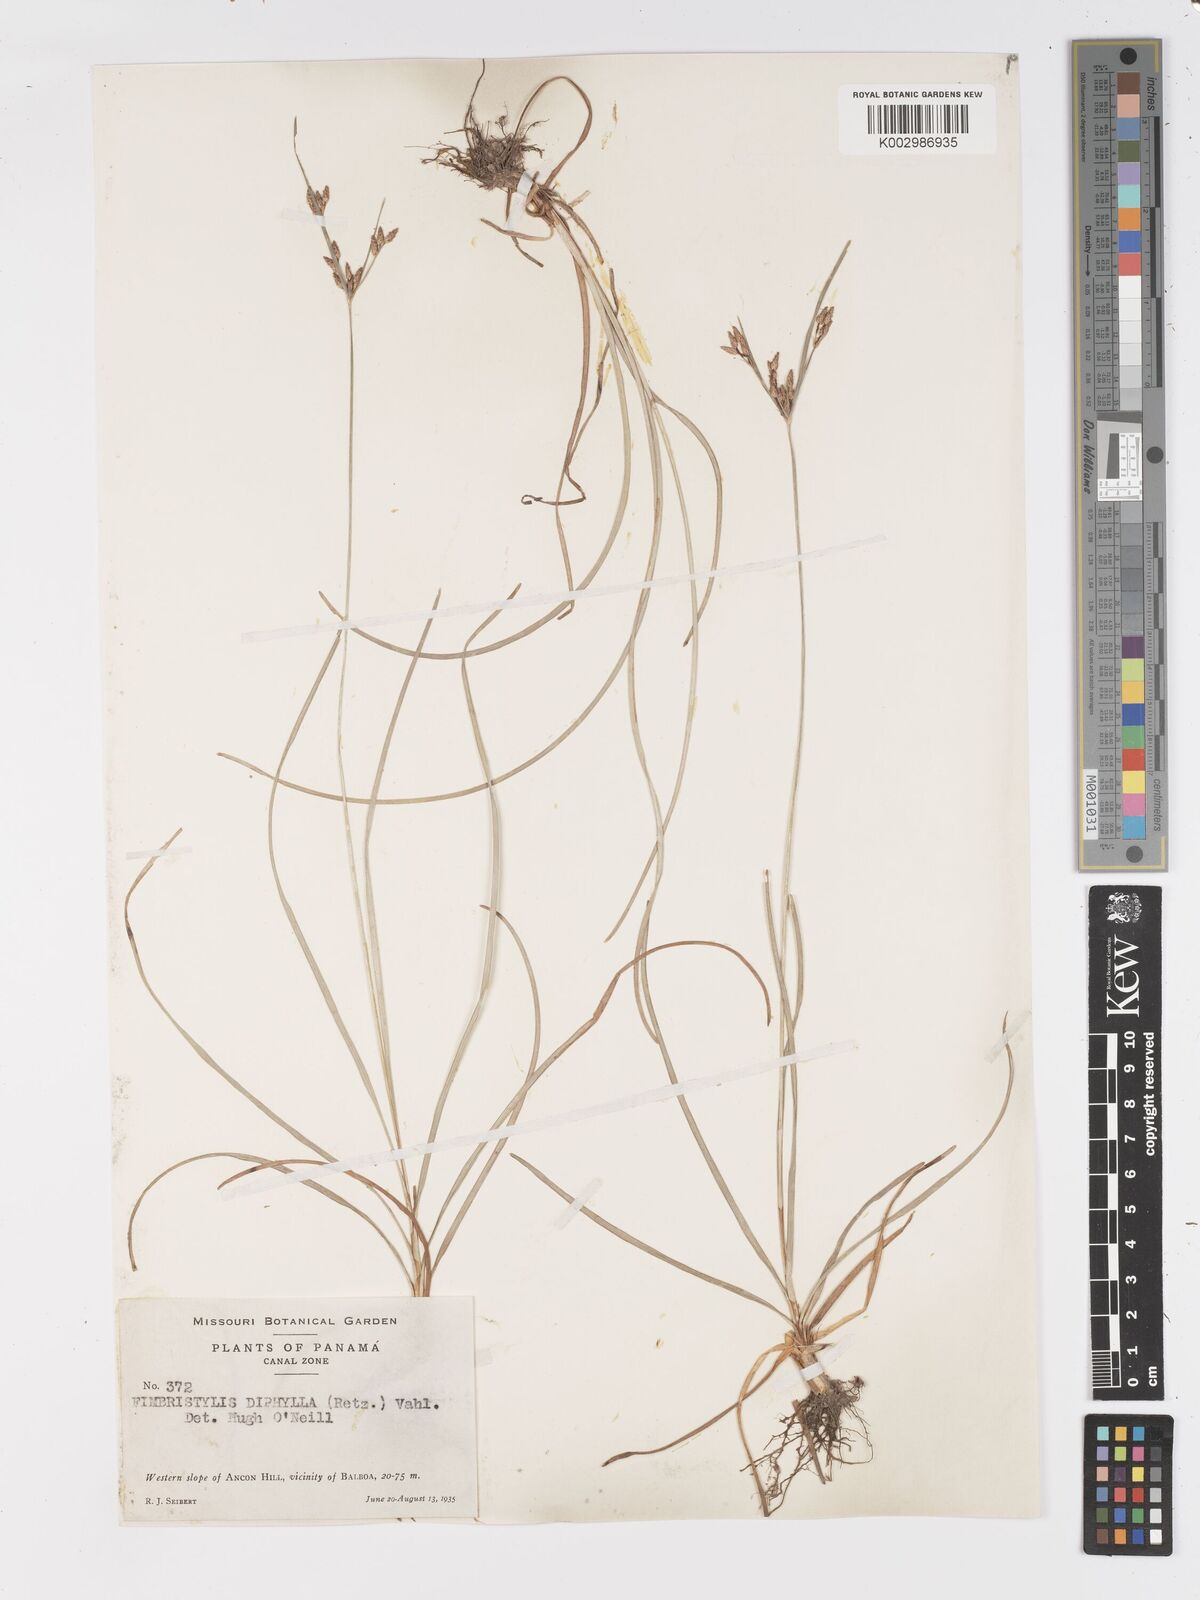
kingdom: Plantae
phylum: Tracheophyta
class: Liliopsida
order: Poales
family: Cyperaceae
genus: Fimbristylis
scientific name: Fimbristylis dichotoma
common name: Forked fimbry
